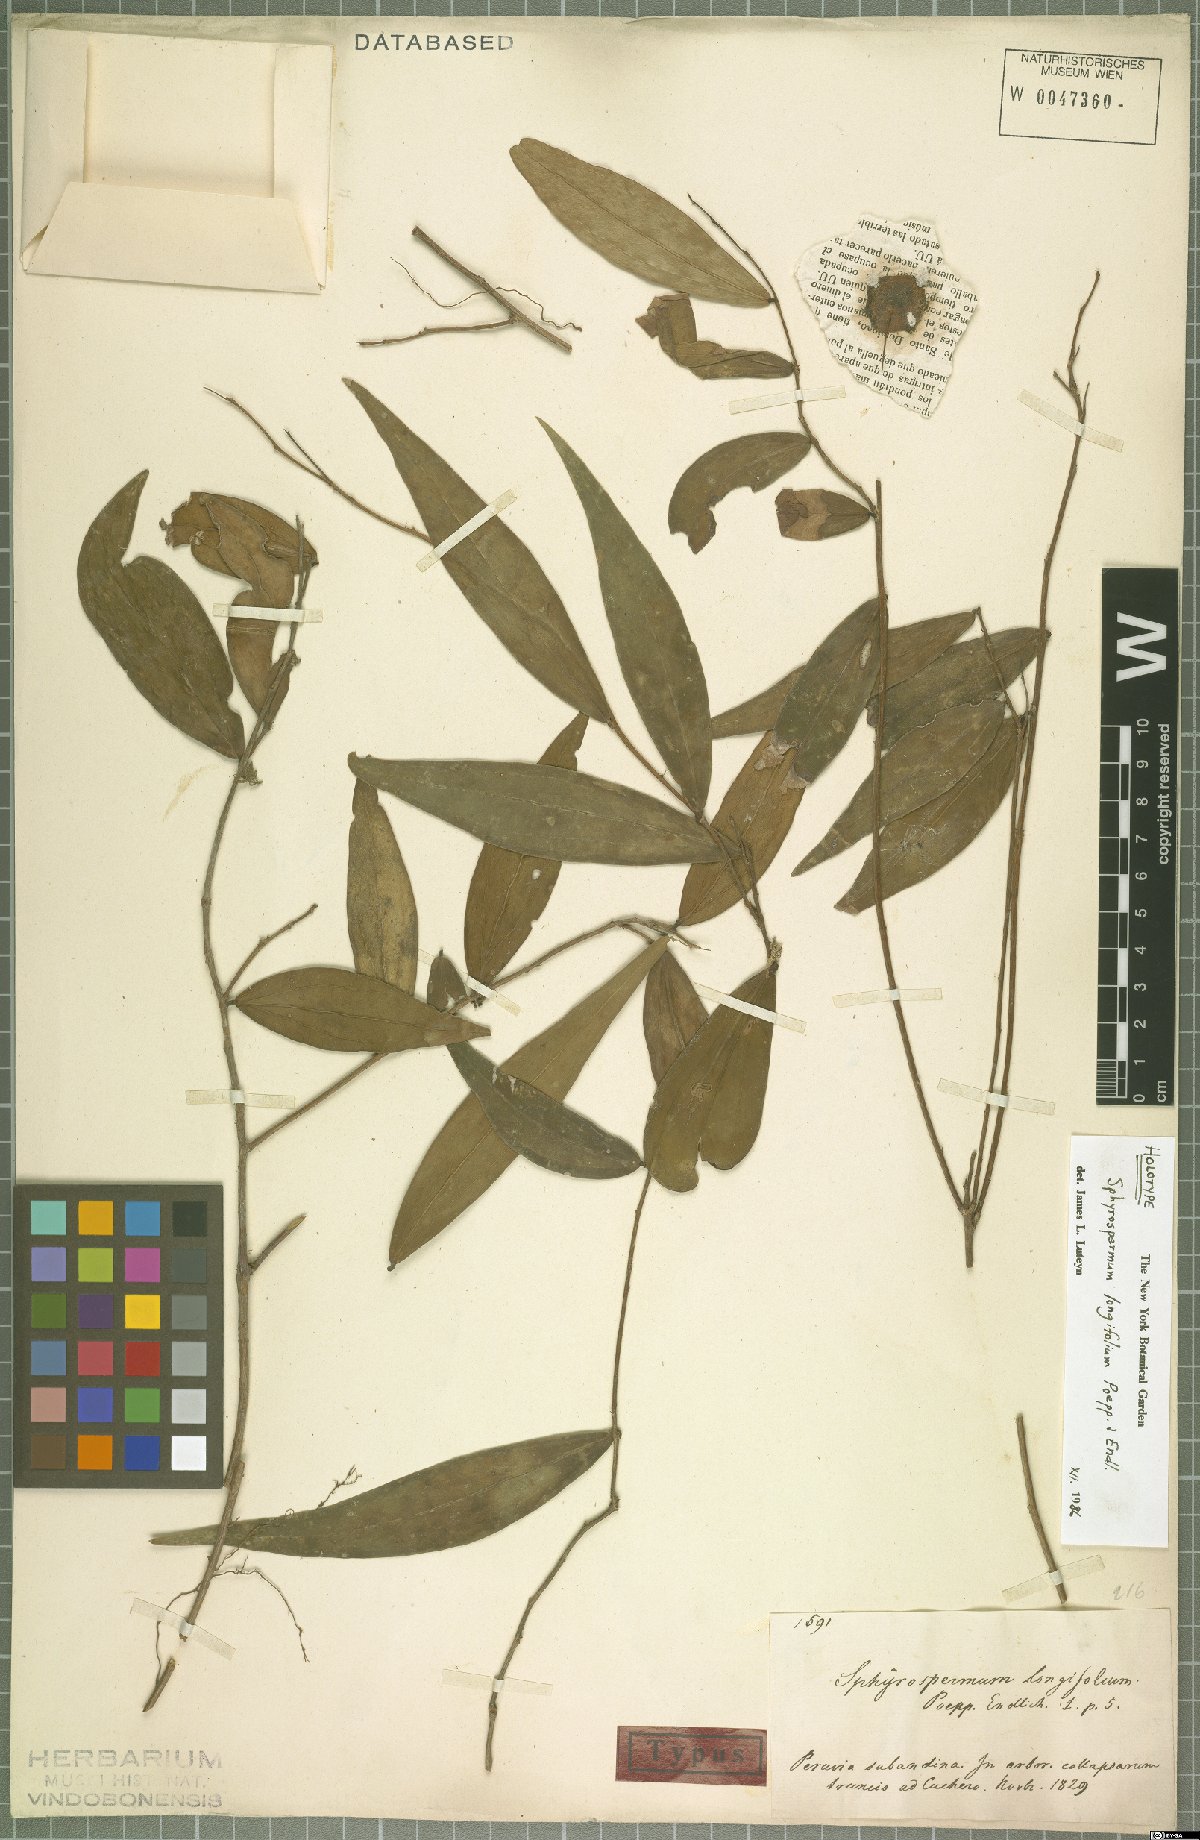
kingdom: Plantae
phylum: Tracheophyta
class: Magnoliopsida
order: Ericales
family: Ericaceae
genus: Sphyrospermum
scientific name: Sphyrospermum longifolium
